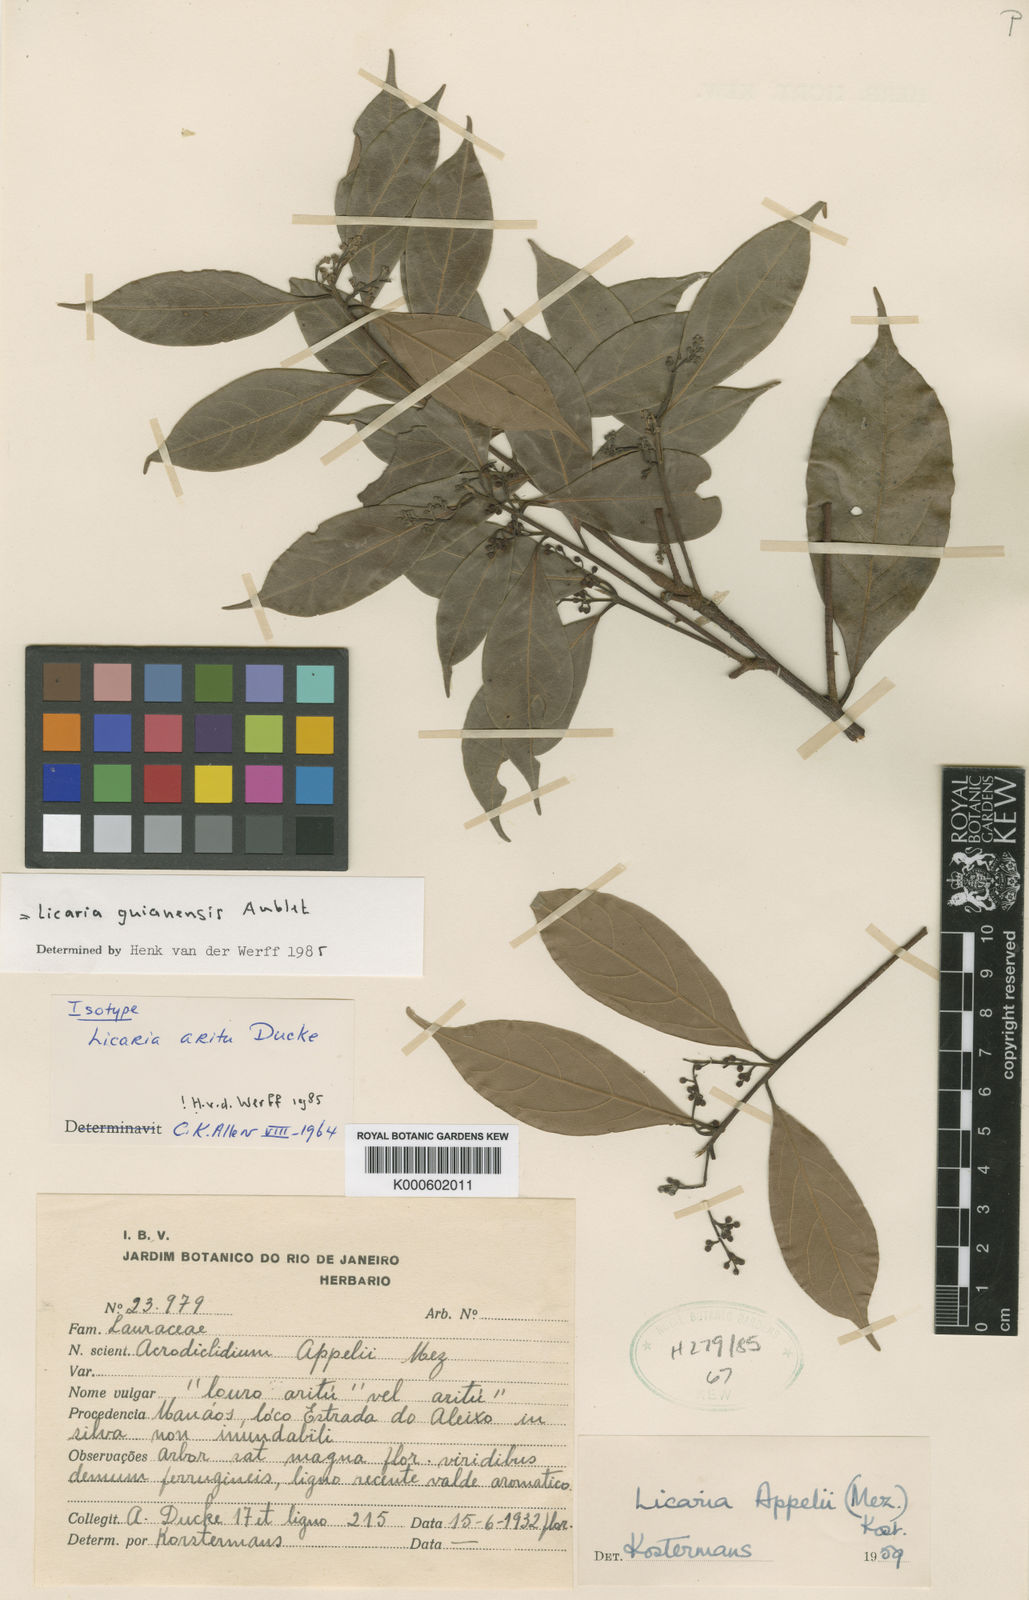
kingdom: Plantae
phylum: Tracheophyta
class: Magnoliopsida
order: Laurales
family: Lauraceae
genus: Licaria
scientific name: Licaria guianensis
